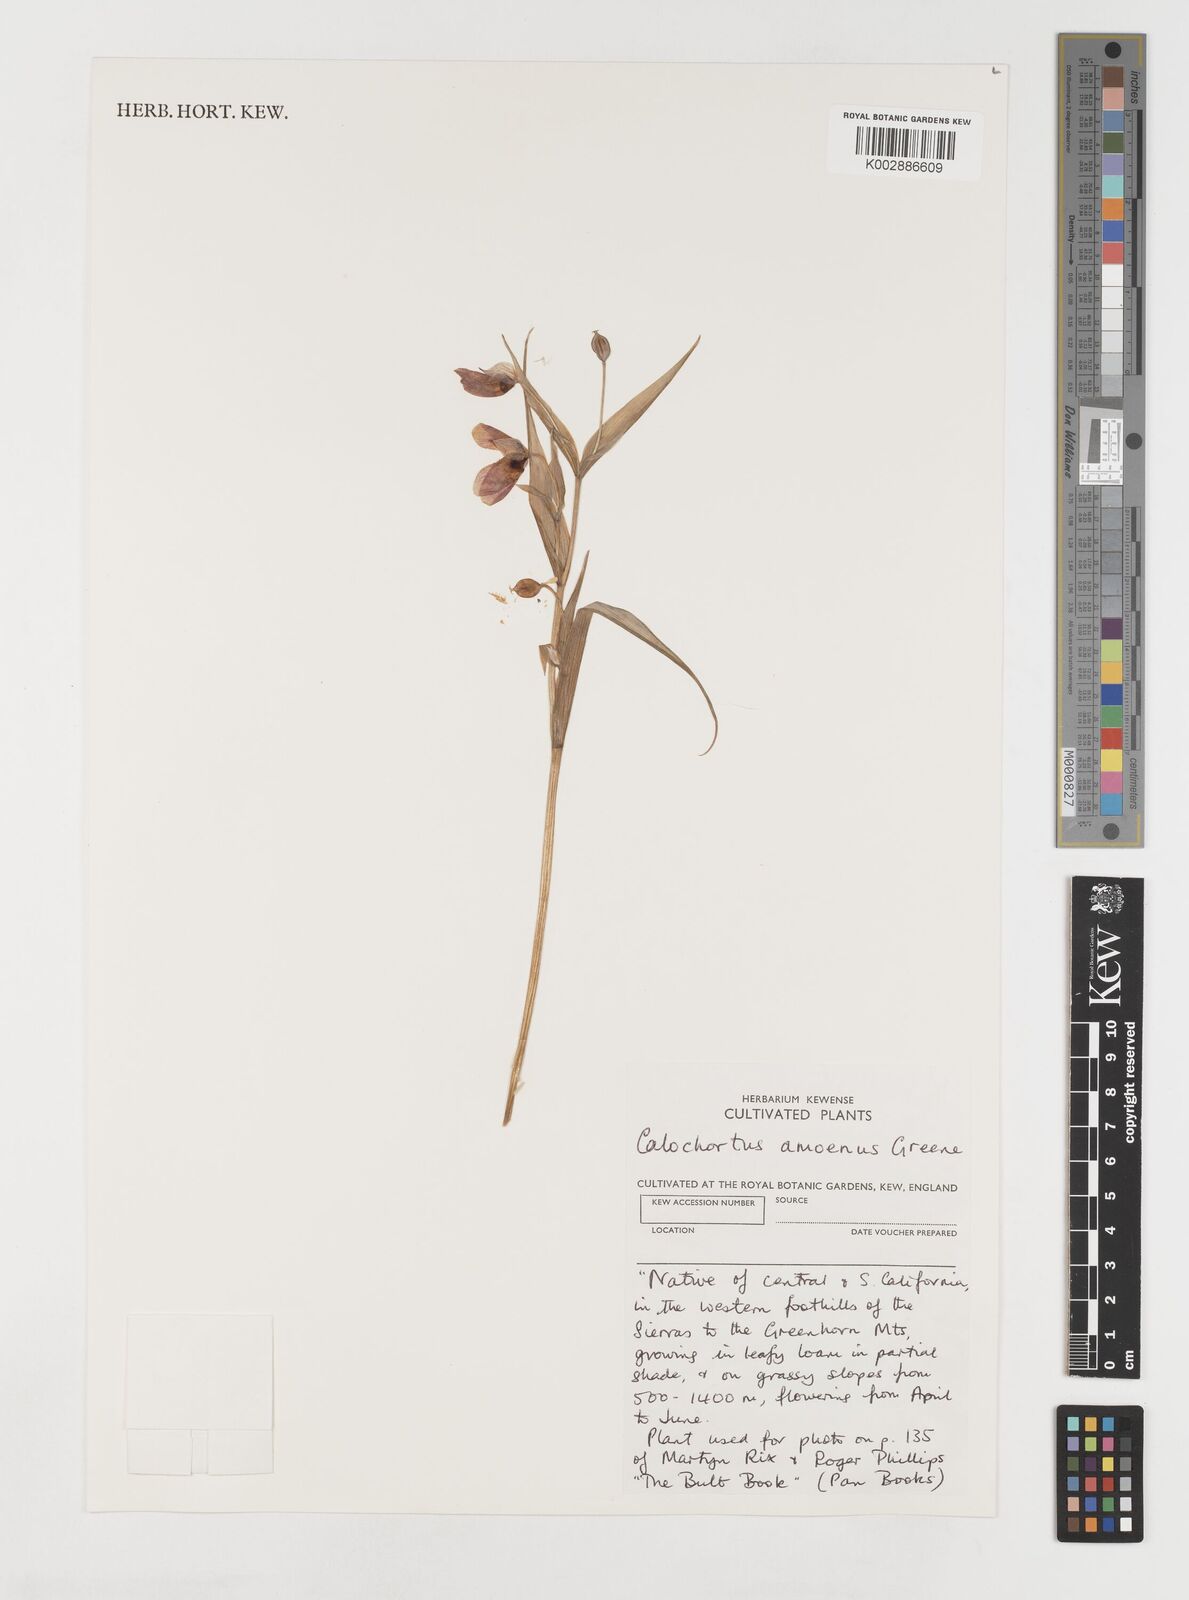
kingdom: Plantae
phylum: Tracheophyta
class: Liliopsida
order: Liliales
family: Liliaceae
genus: Calochortus
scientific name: Calochortus amoenus
